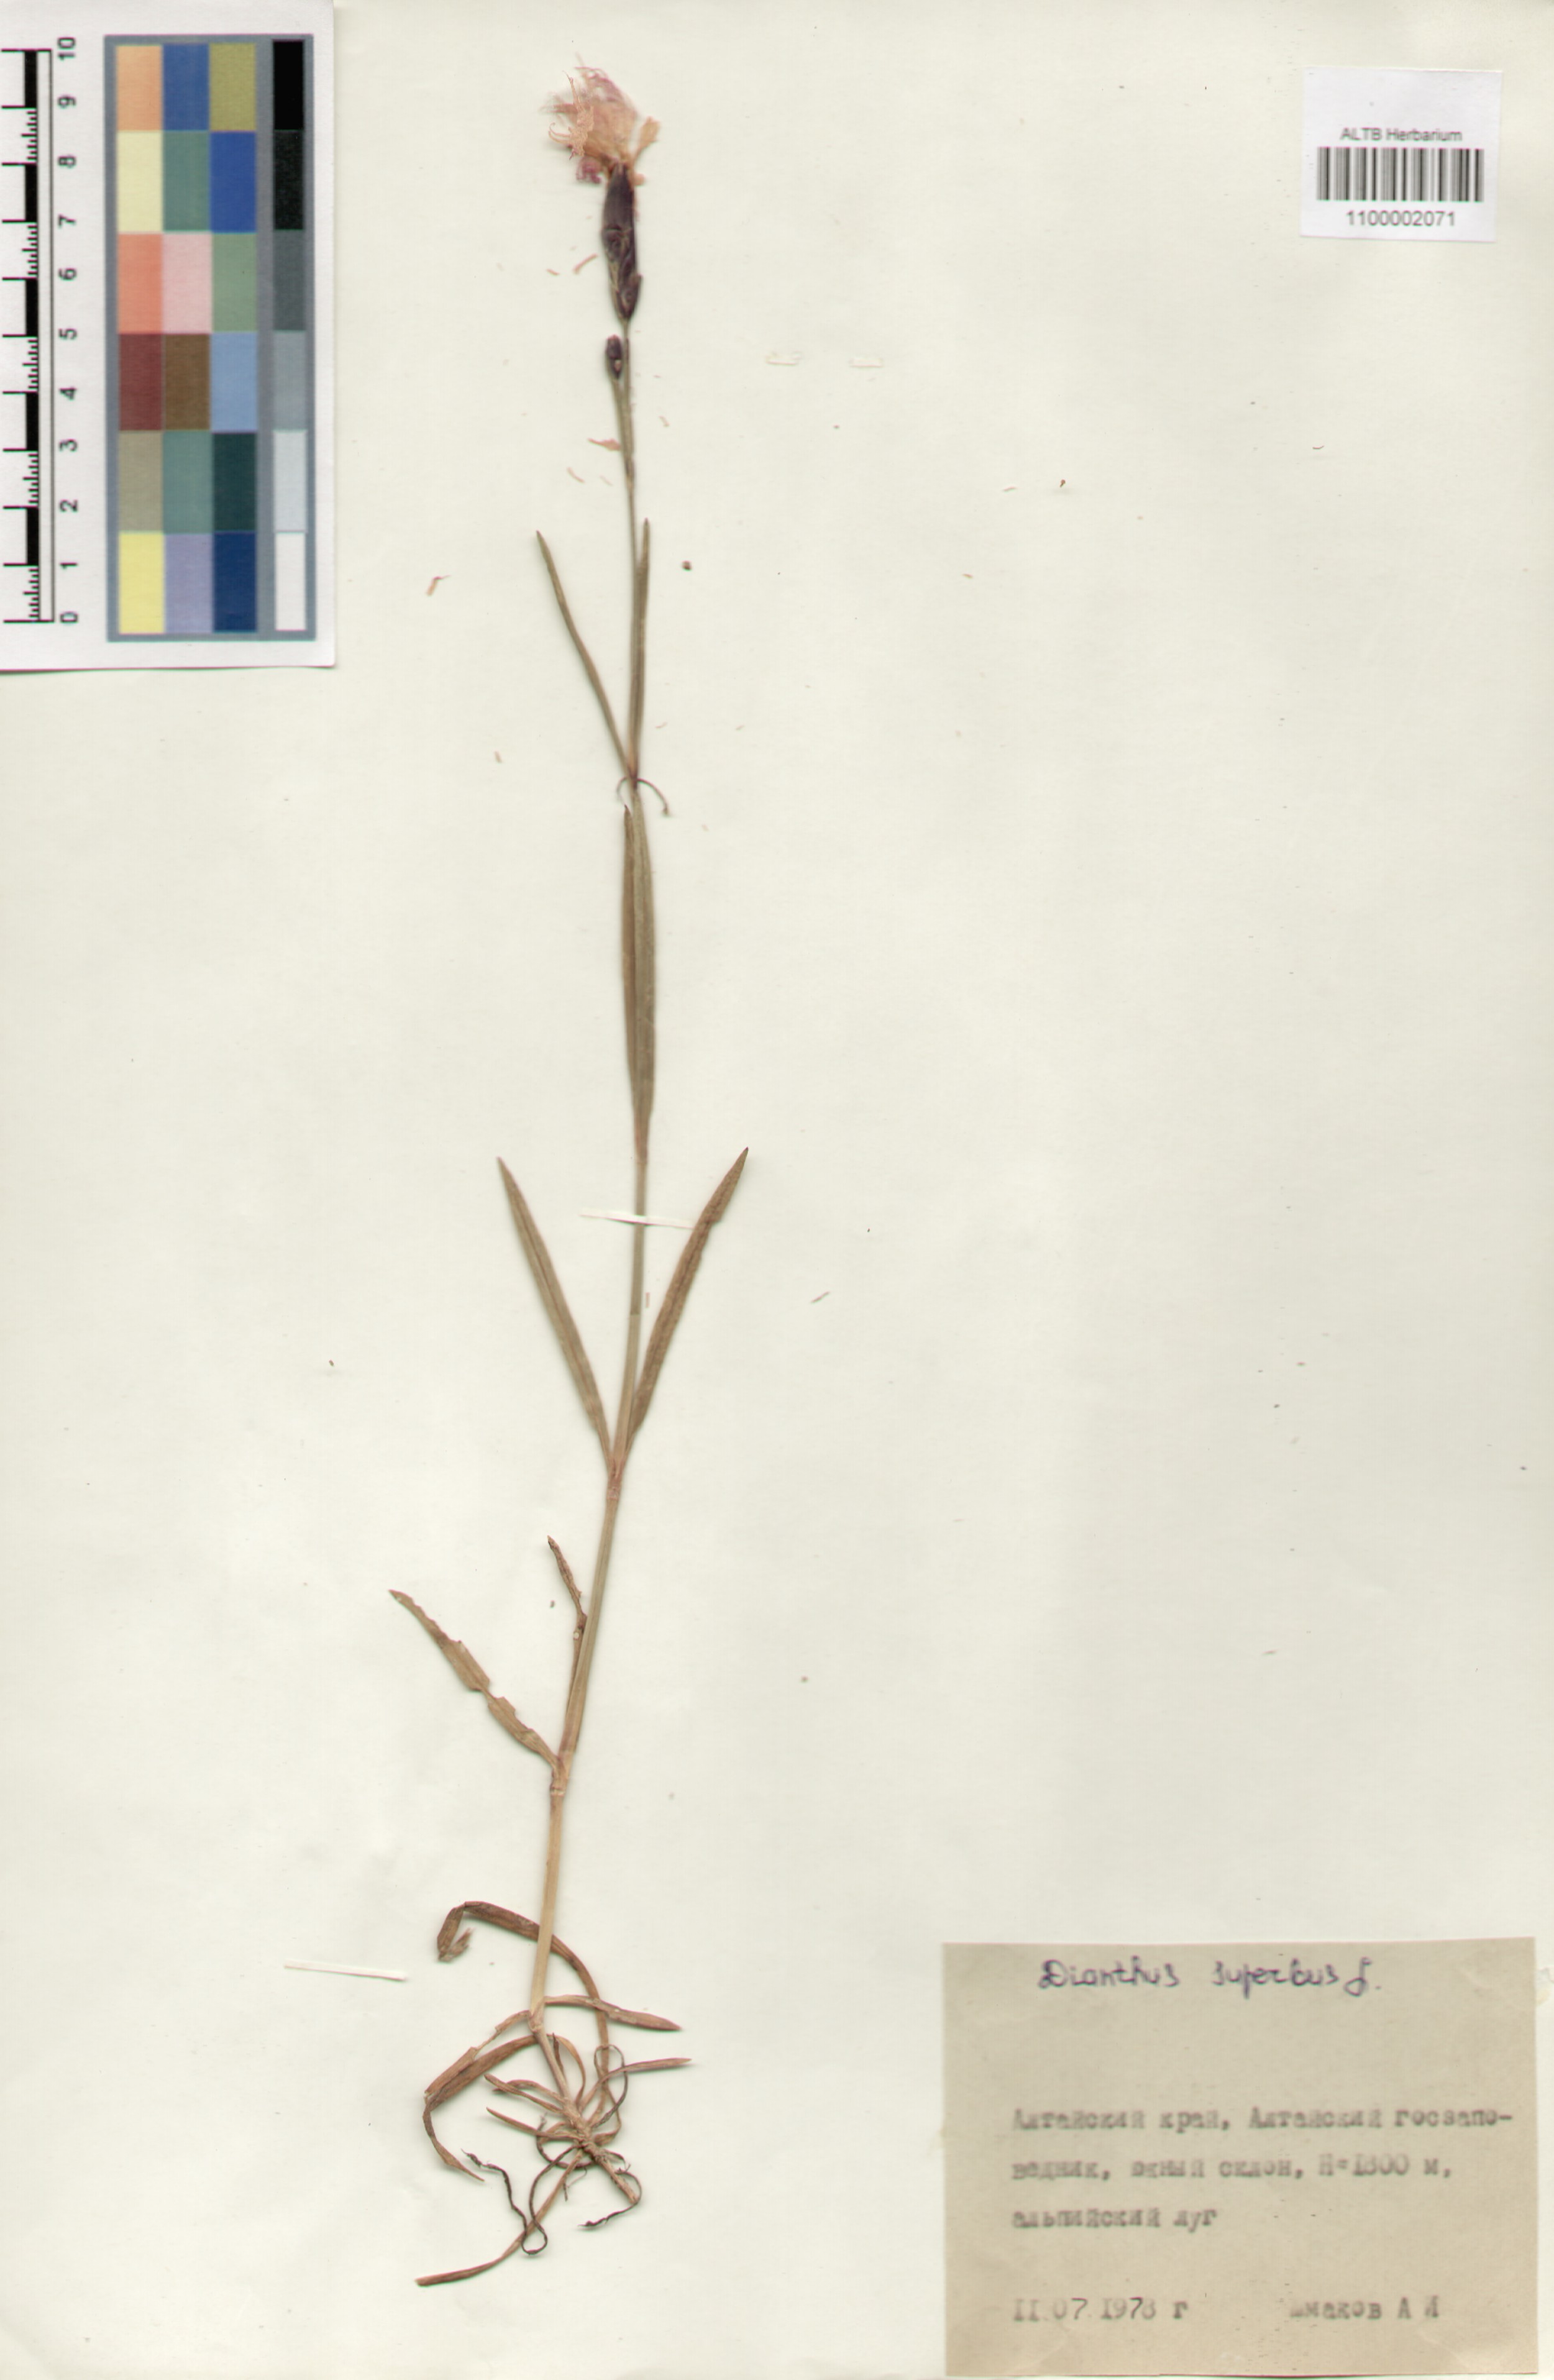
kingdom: Plantae
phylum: Tracheophyta
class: Magnoliopsida
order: Caryophyllales
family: Caryophyllaceae
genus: Dianthus
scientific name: Dianthus superbus
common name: Fringed pink
